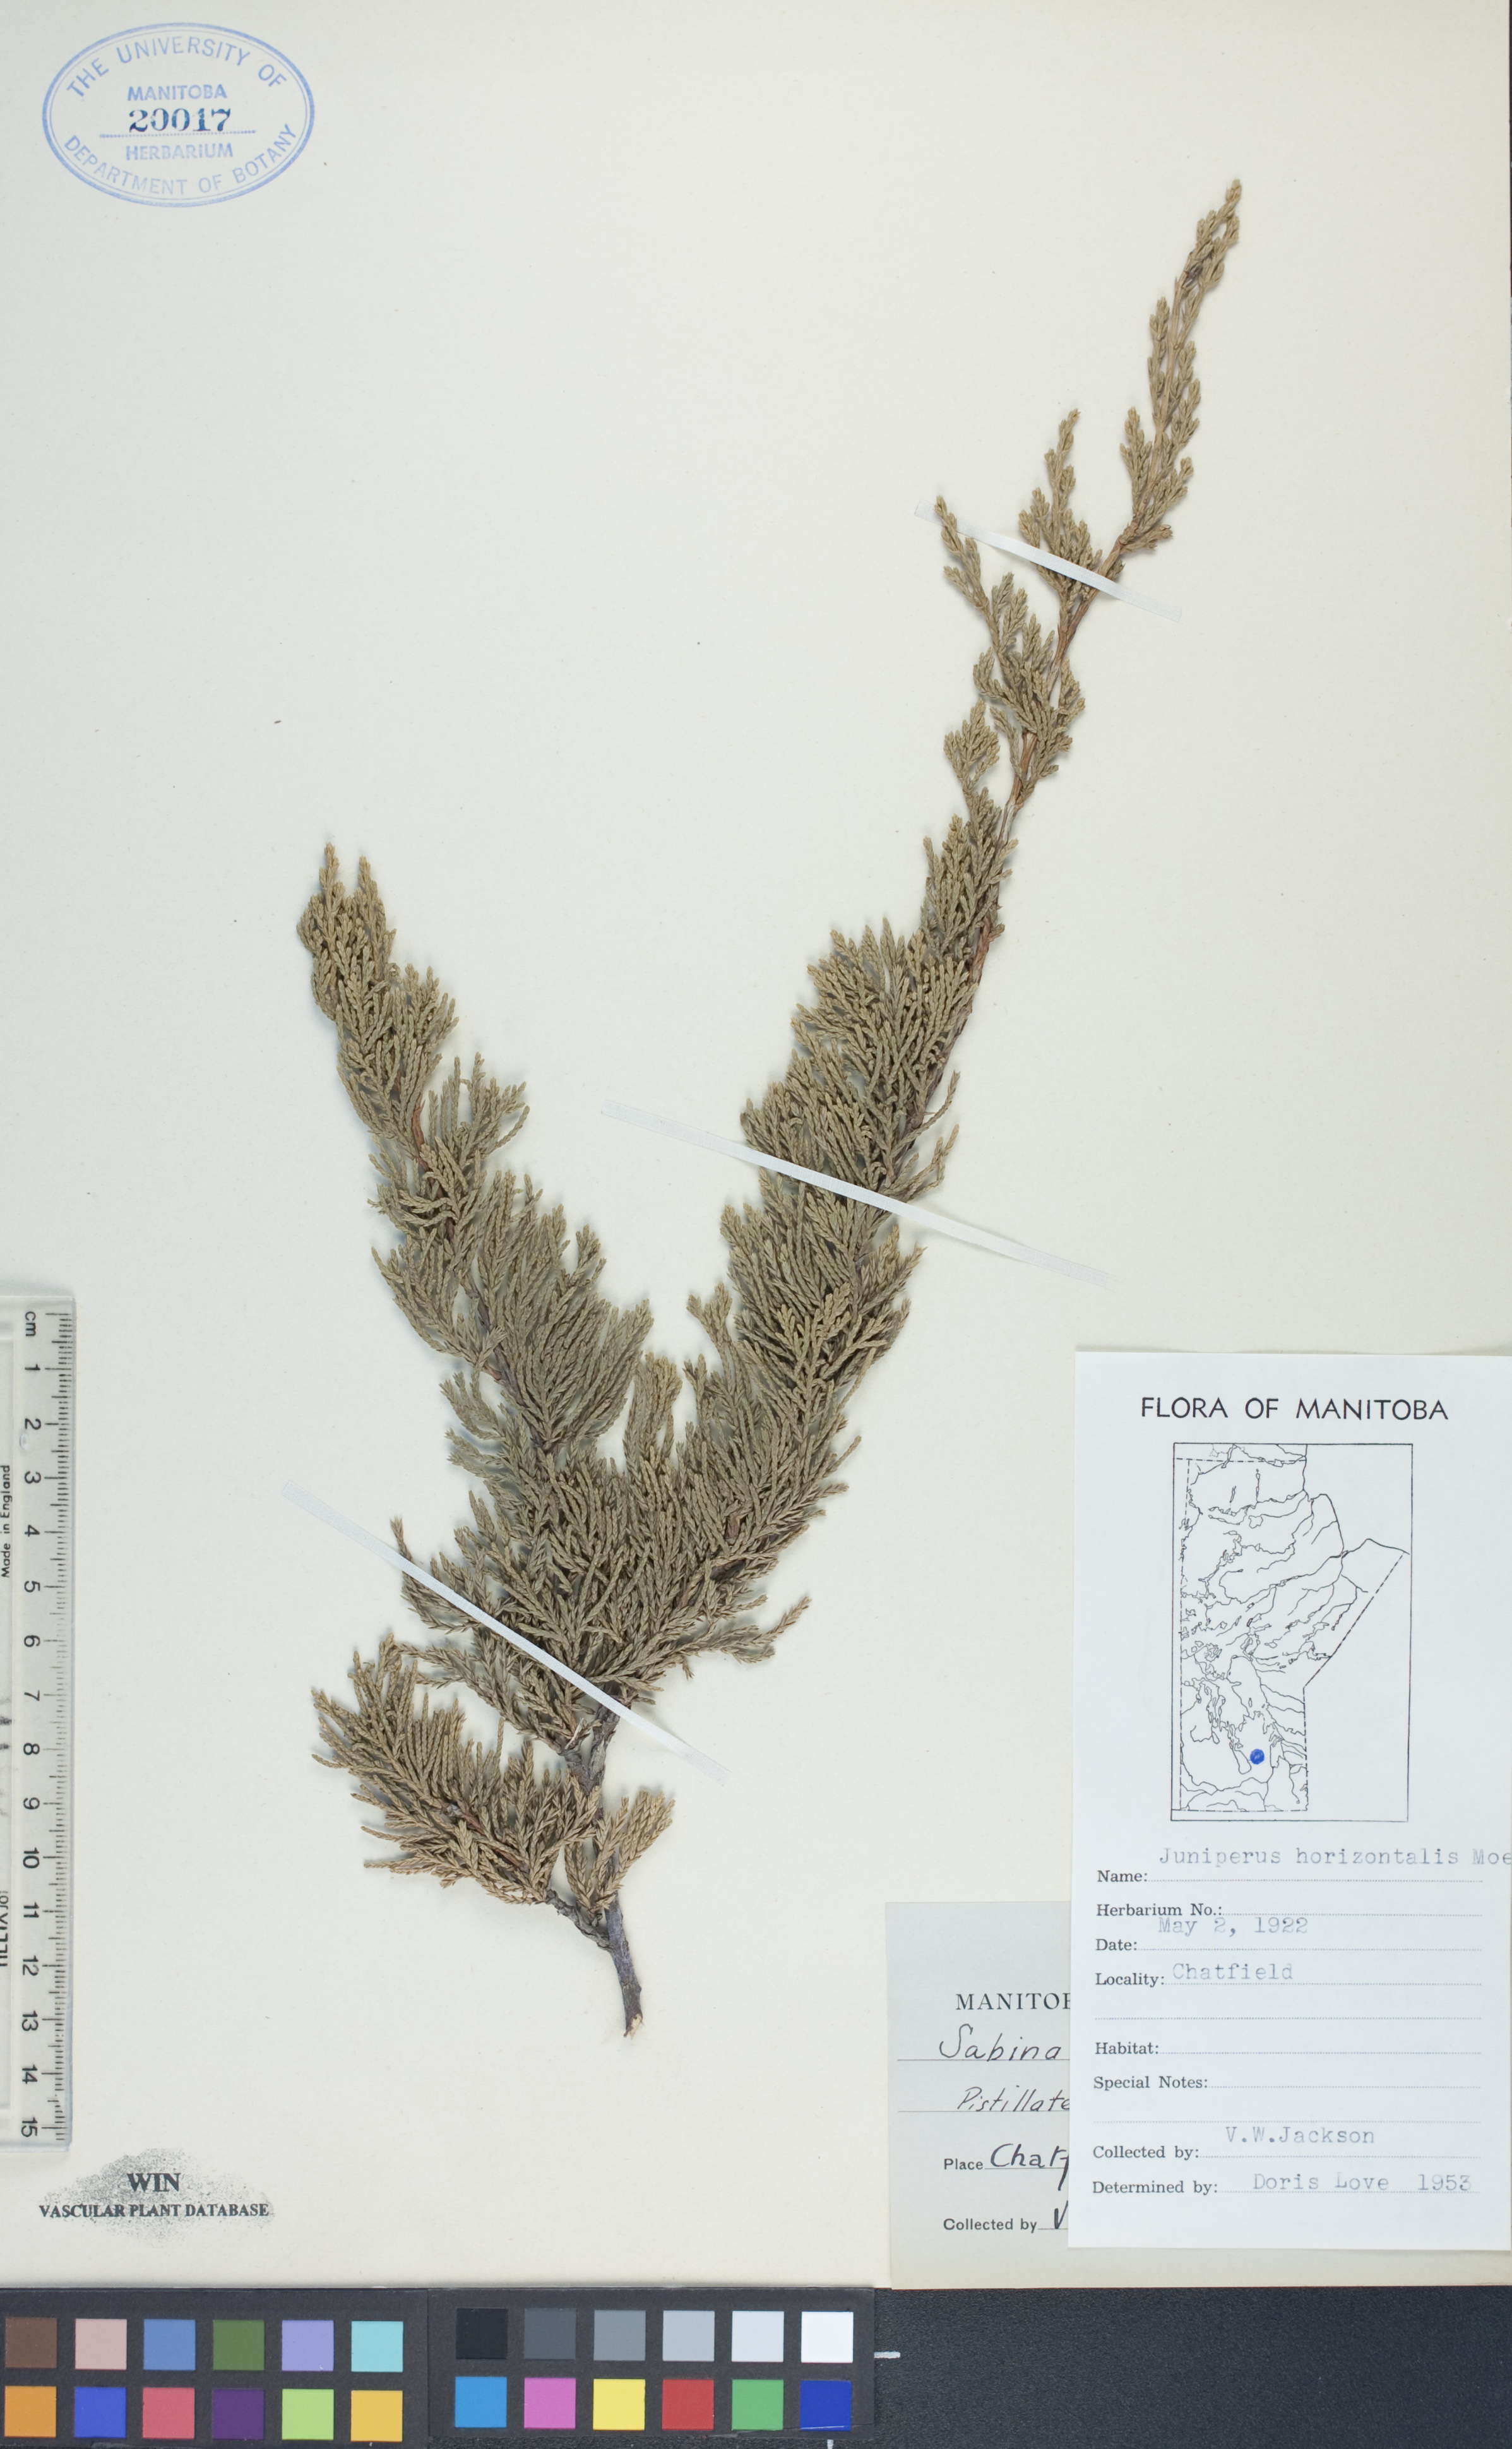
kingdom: Plantae
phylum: Tracheophyta
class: Pinopsida
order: Pinales
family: Cupressaceae
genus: Juniperus
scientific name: Juniperus horizontalis
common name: Creeping juniper
